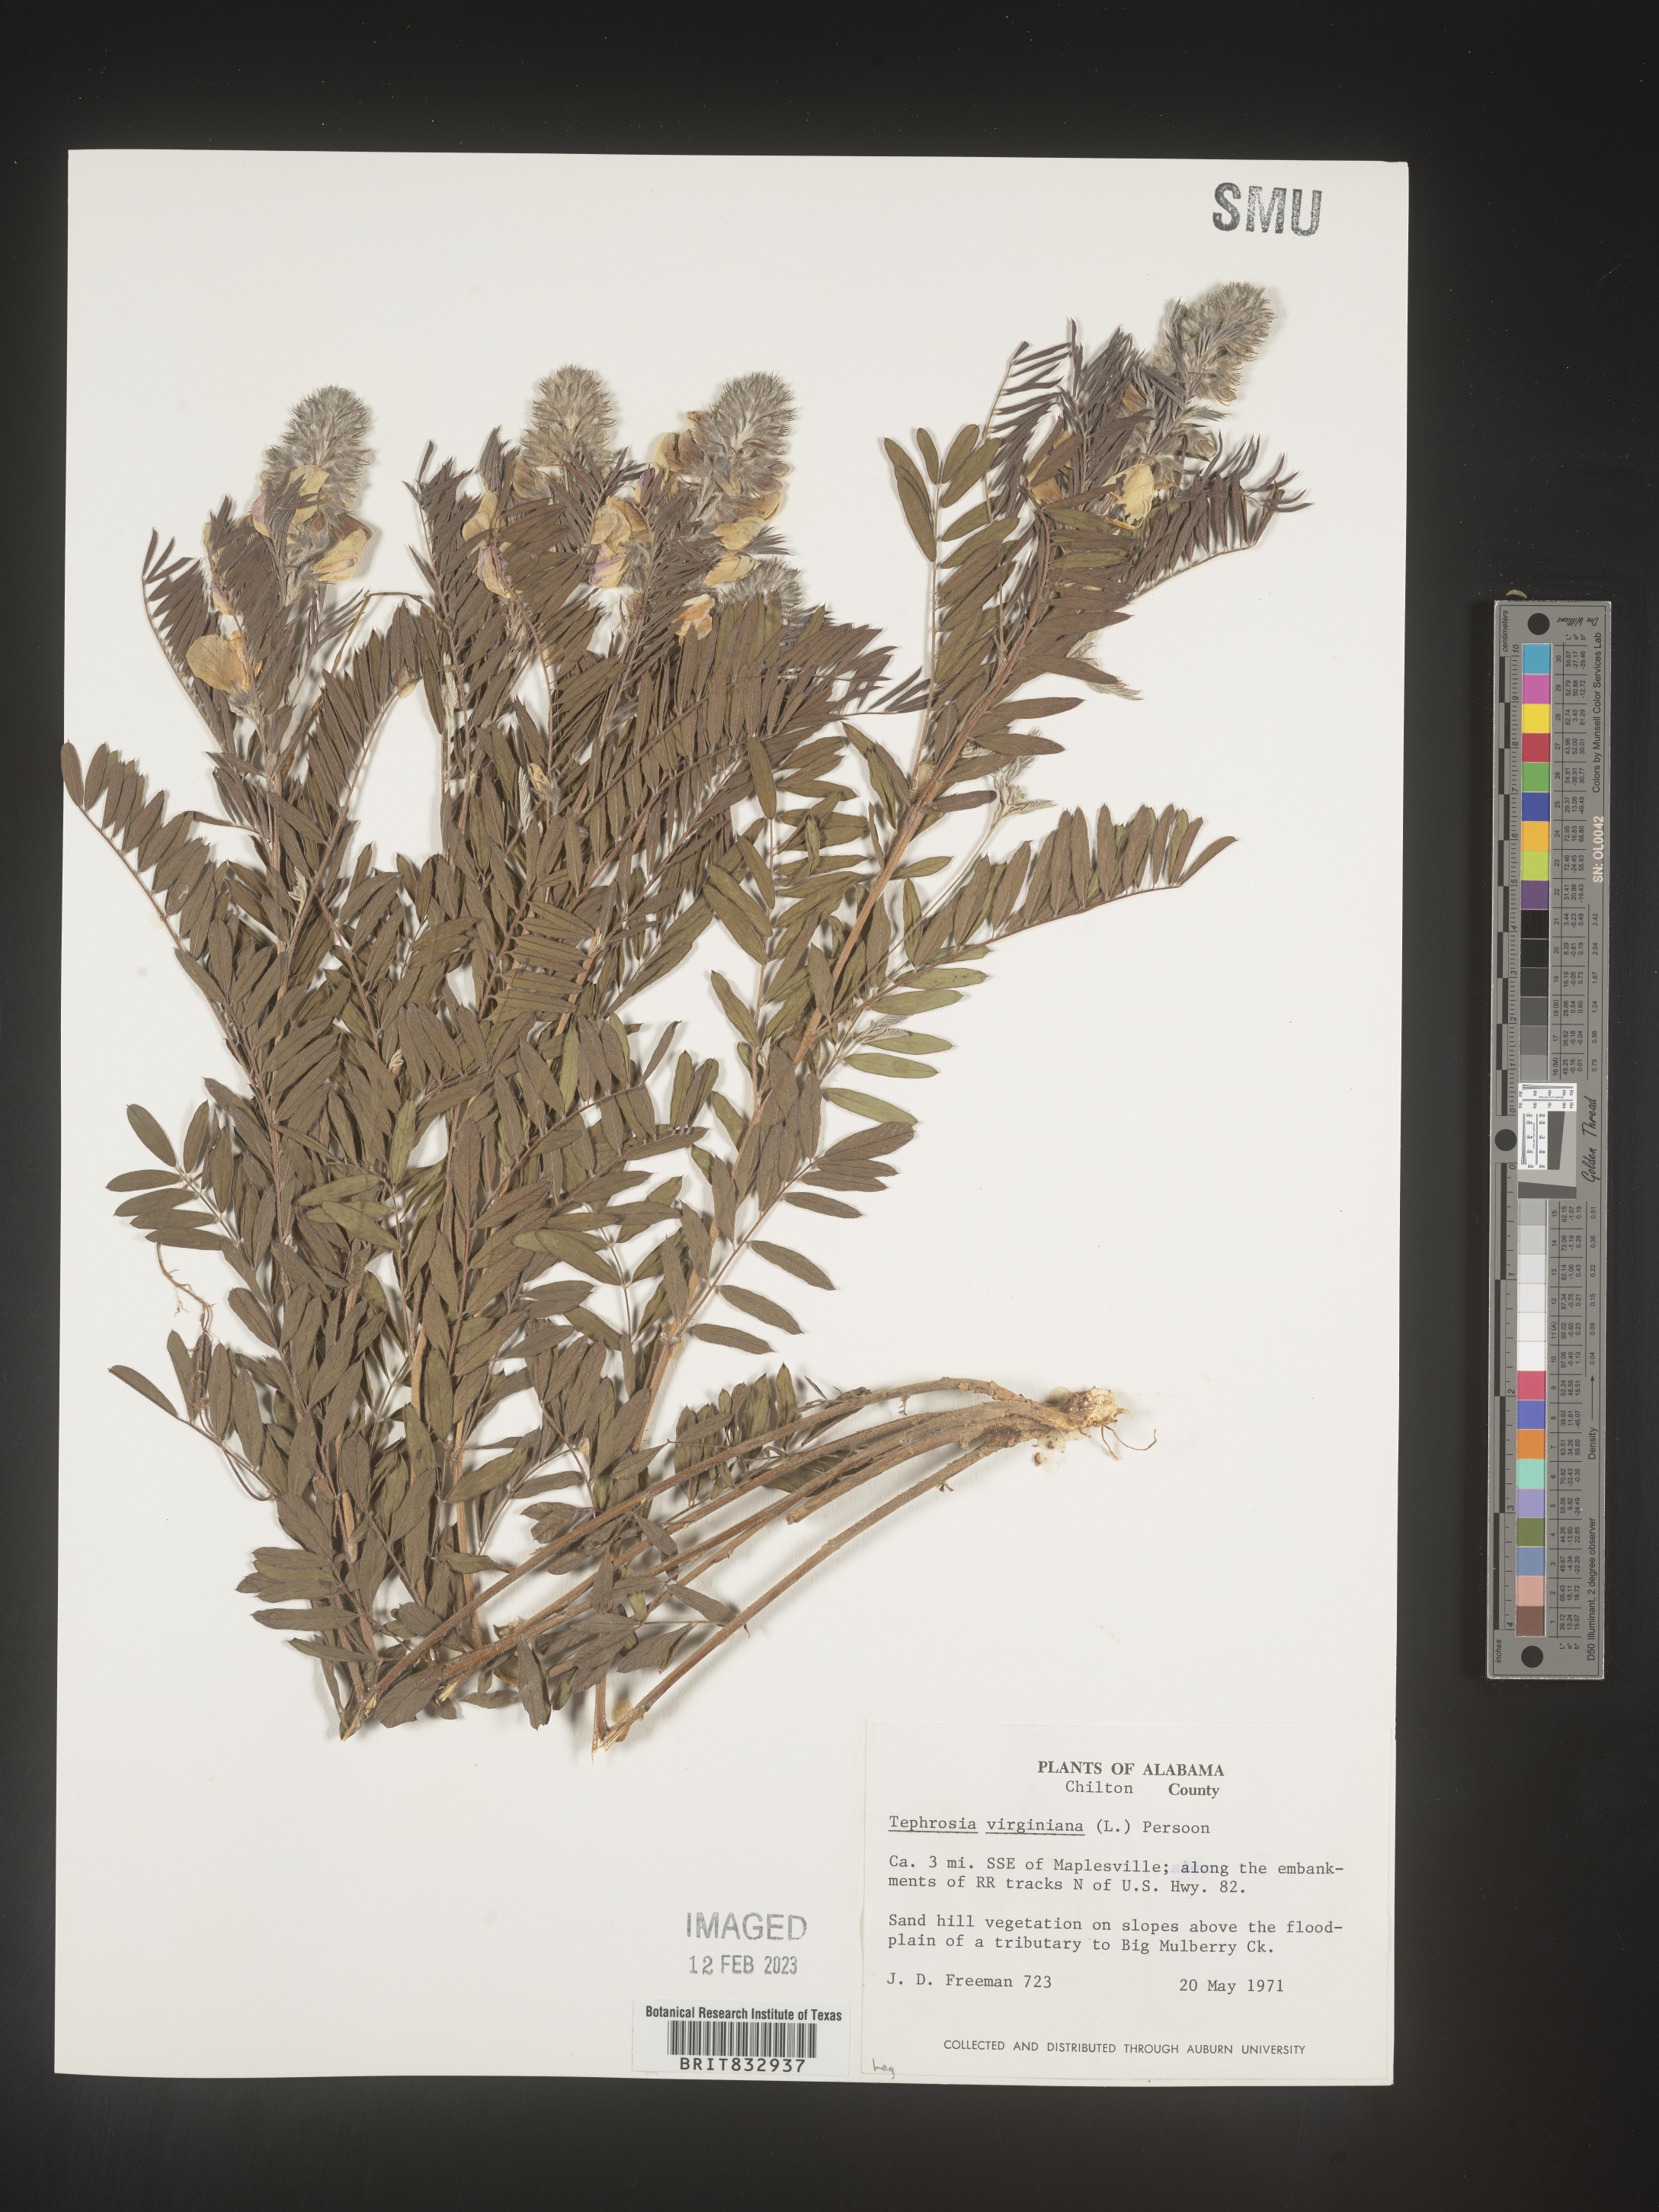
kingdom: Plantae
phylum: Tracheophyta
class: Magnoliopsida
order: Fabales
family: Fabaceae
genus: Tephrosia
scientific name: Tephrosia virginiana
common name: Rabbit-pea
